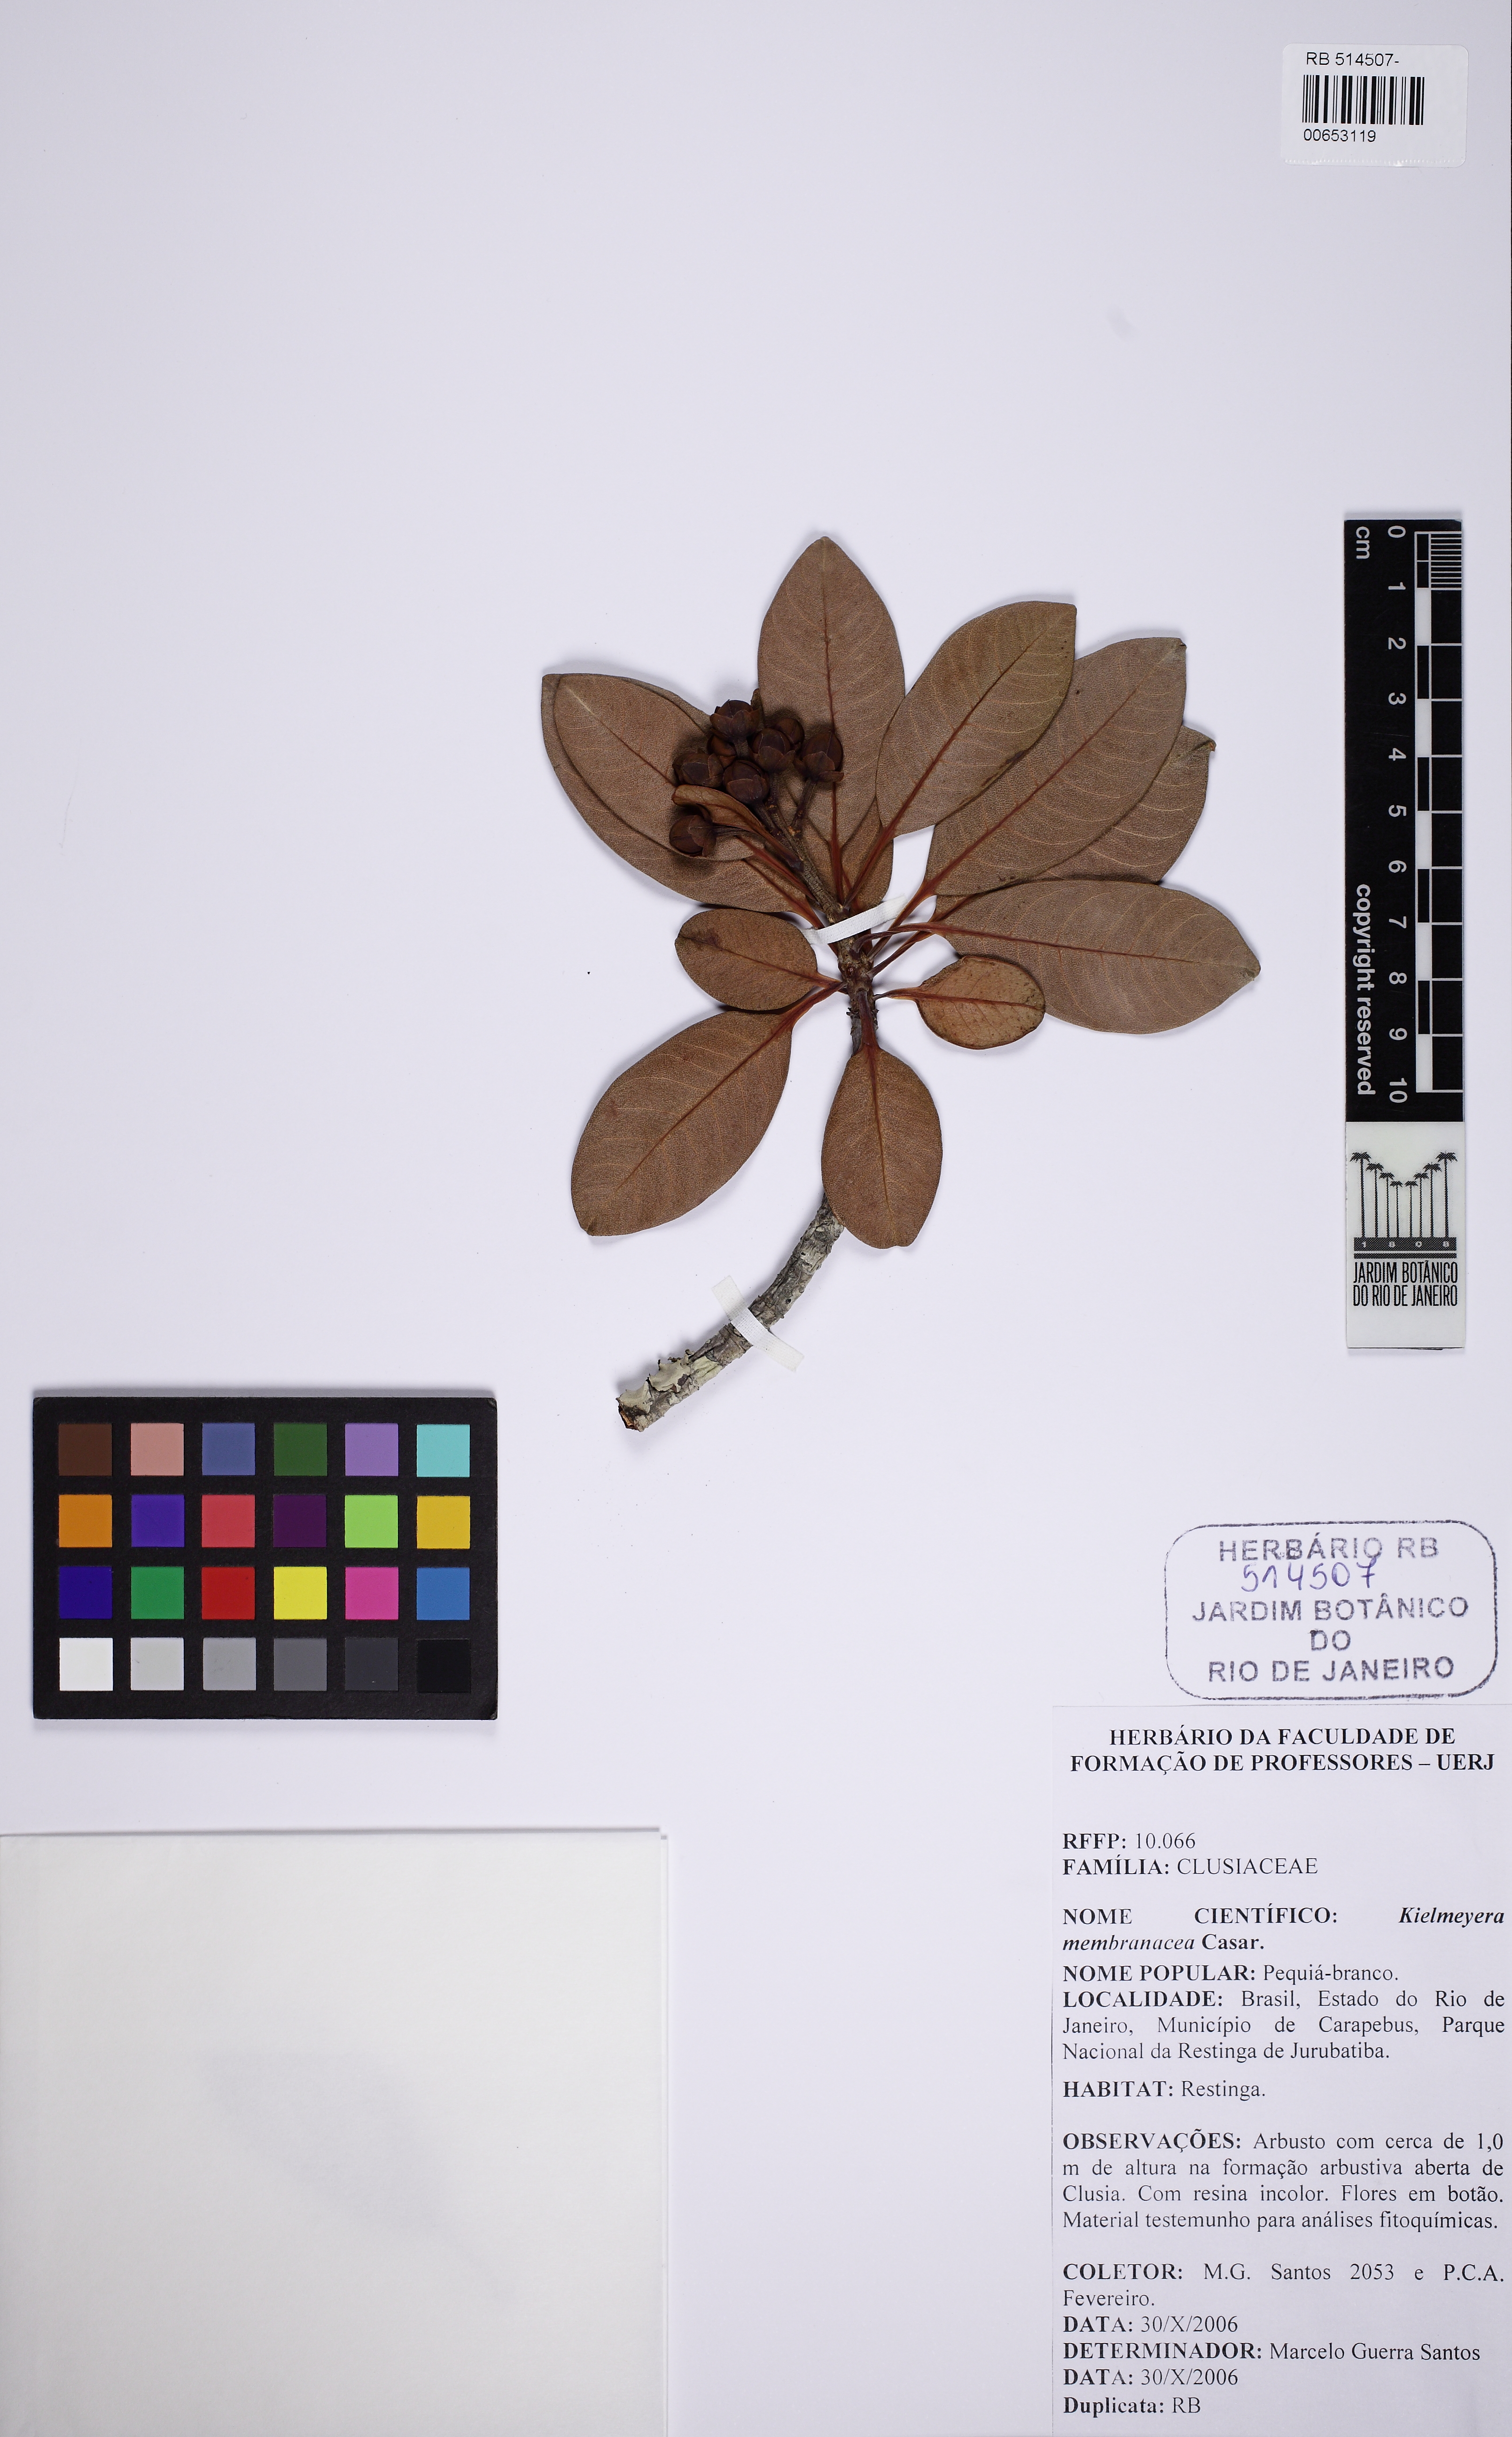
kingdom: Plantae
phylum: Tracheophyta
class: Magnoliopsida
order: Malpighiales
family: Calophyllaceae
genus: Kielmeyera
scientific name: Kielmeyera membranacea
